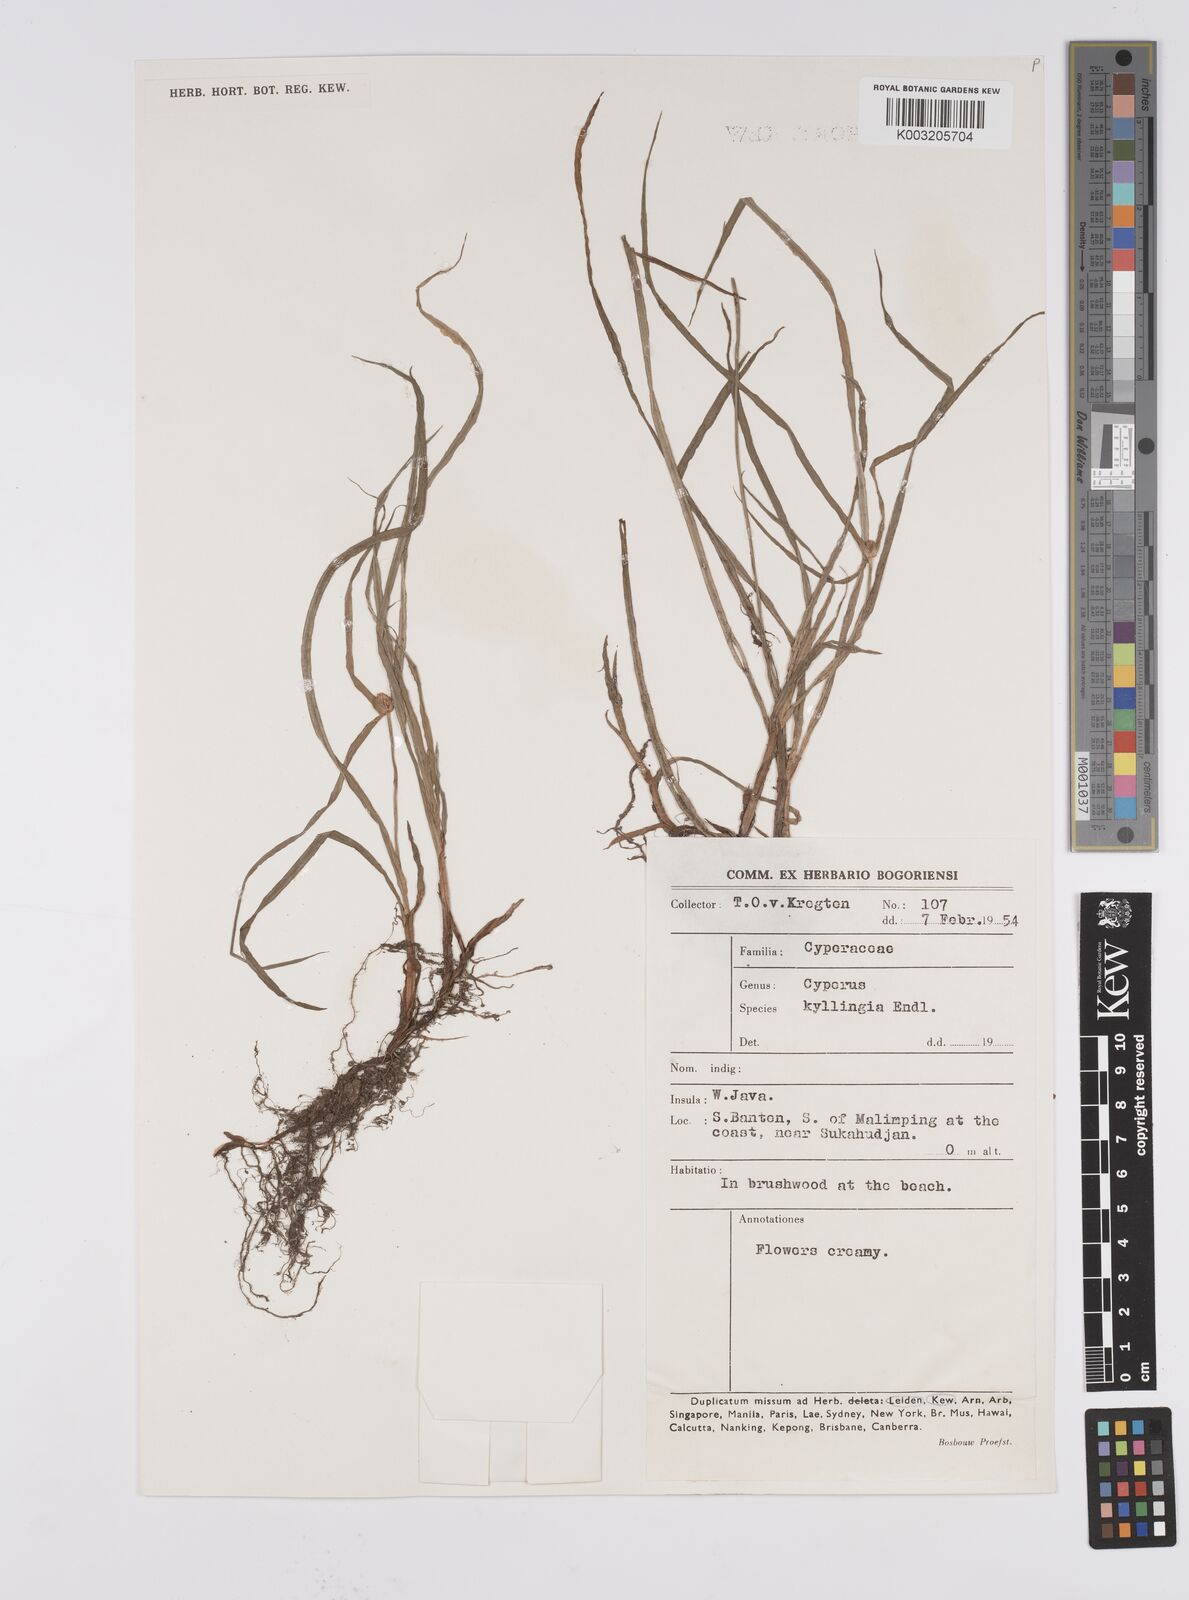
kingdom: Plantae
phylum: Tracheophyta
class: Liliopsida
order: Poales
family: Cyperaceae
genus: Cyperus
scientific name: Cyperus nemoralis
